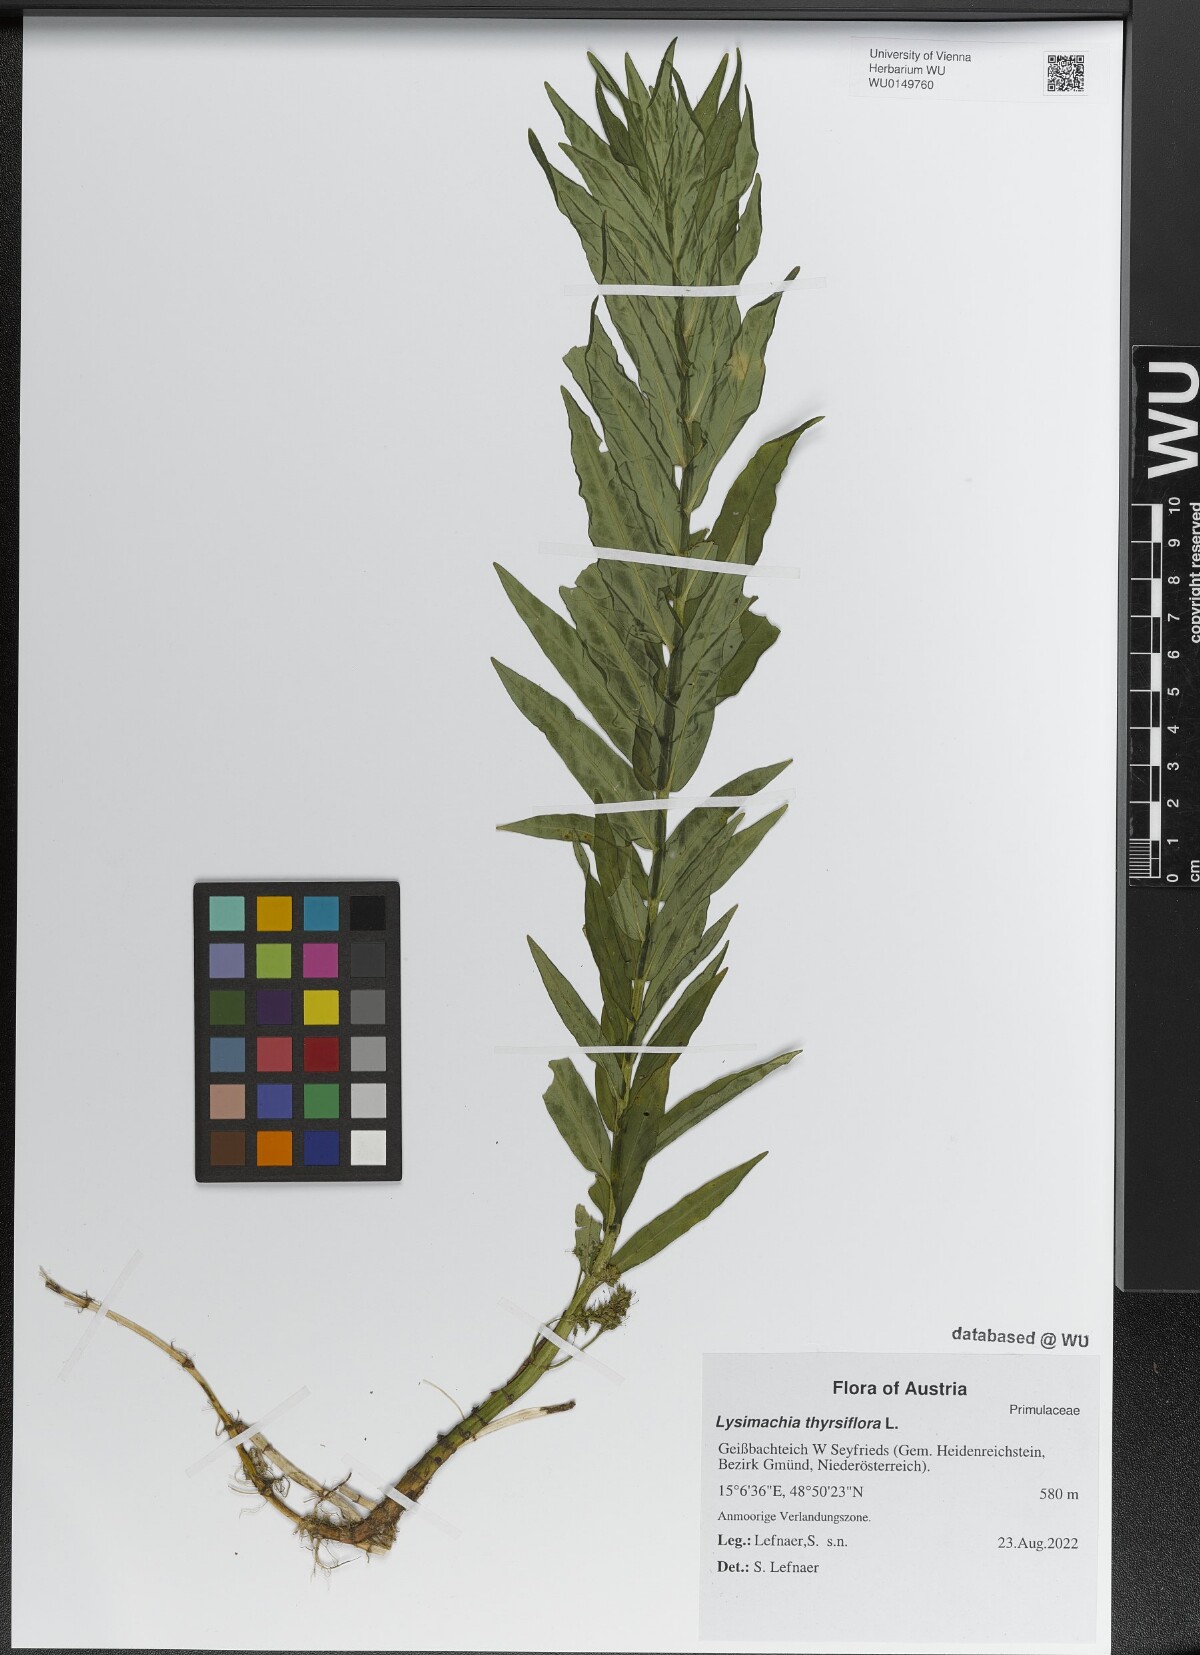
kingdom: Plantae
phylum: Tracheophyta
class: Magnoliopsida
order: Ericales
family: Primulaceae
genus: Lysimachia
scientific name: Lysimachia thyrsiflora
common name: Tufted loosestrife
